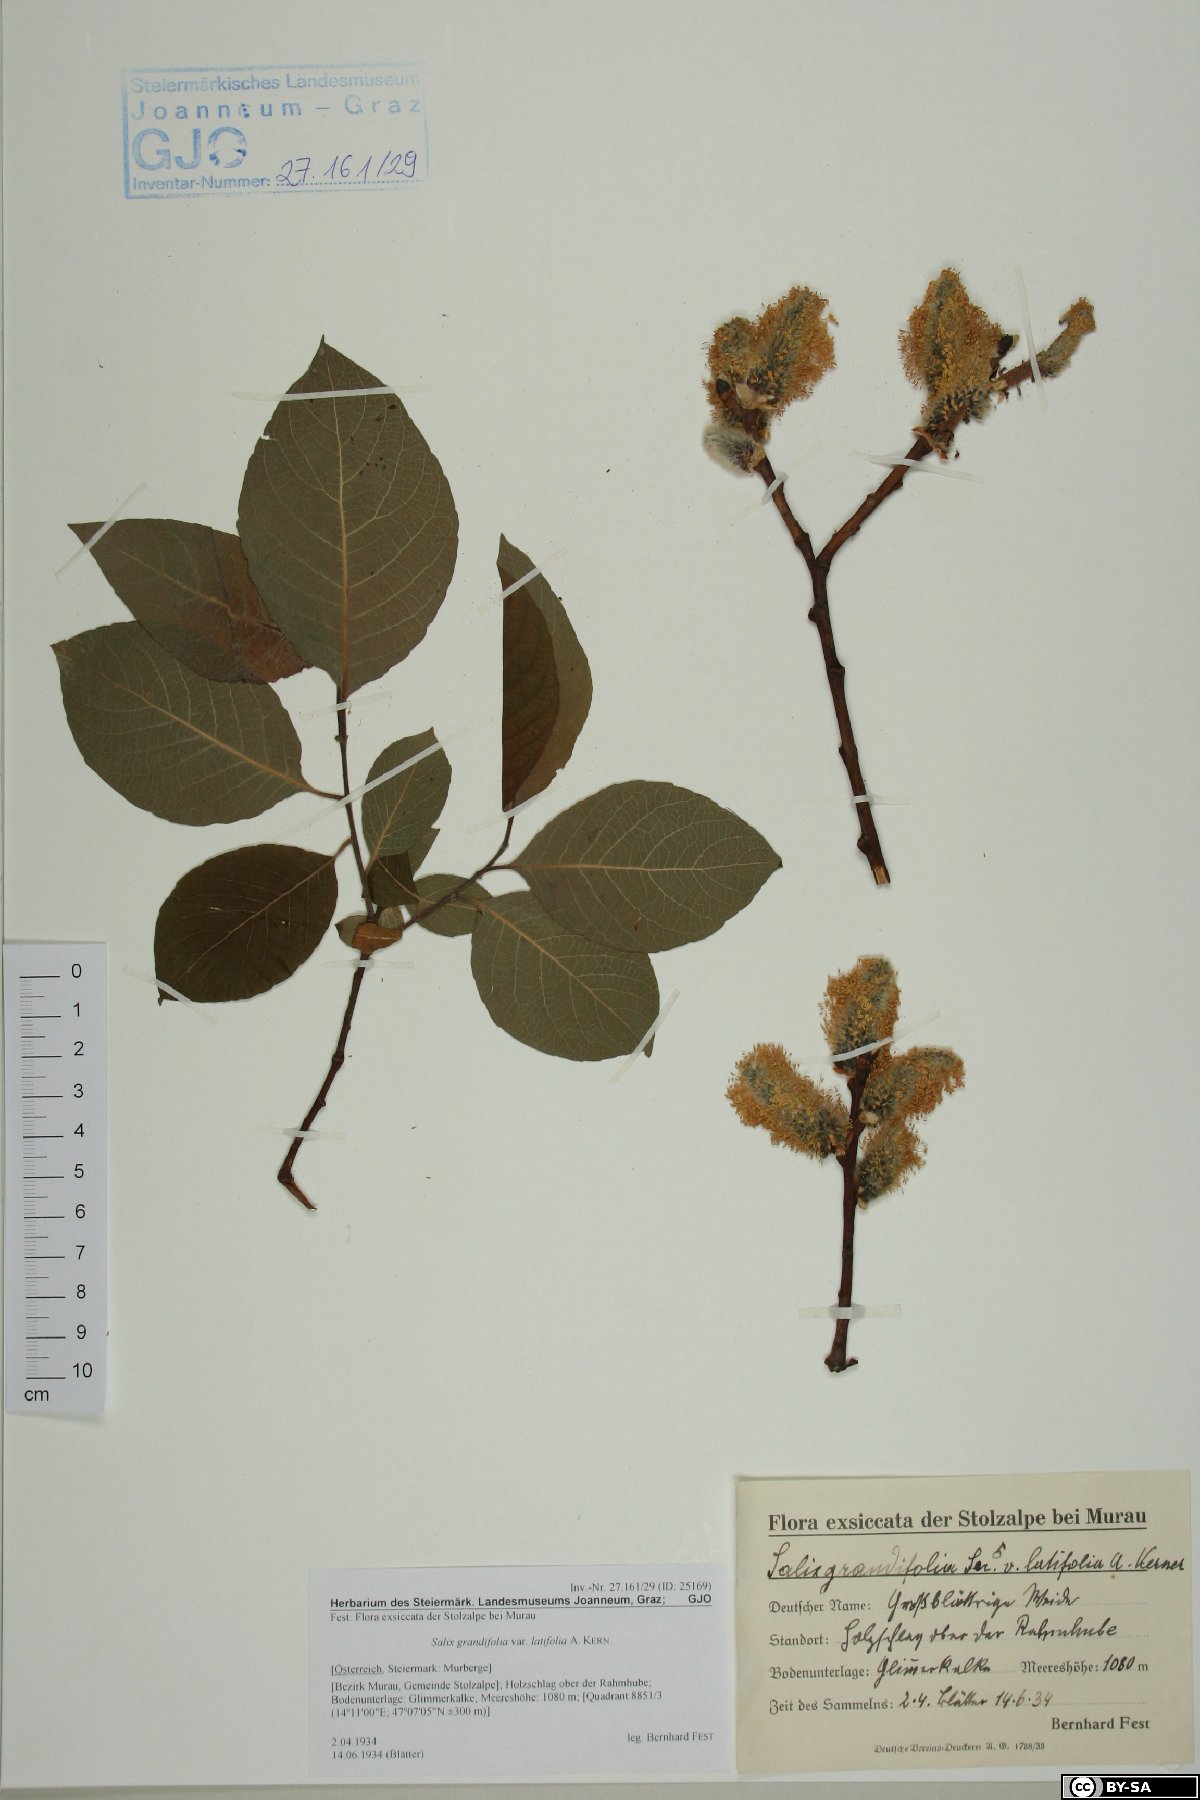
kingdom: Plantae
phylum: Tracheophyta
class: Magnoliopsida
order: Malpighiales
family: Salicaceae
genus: Salix
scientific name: Salix appendiculata
